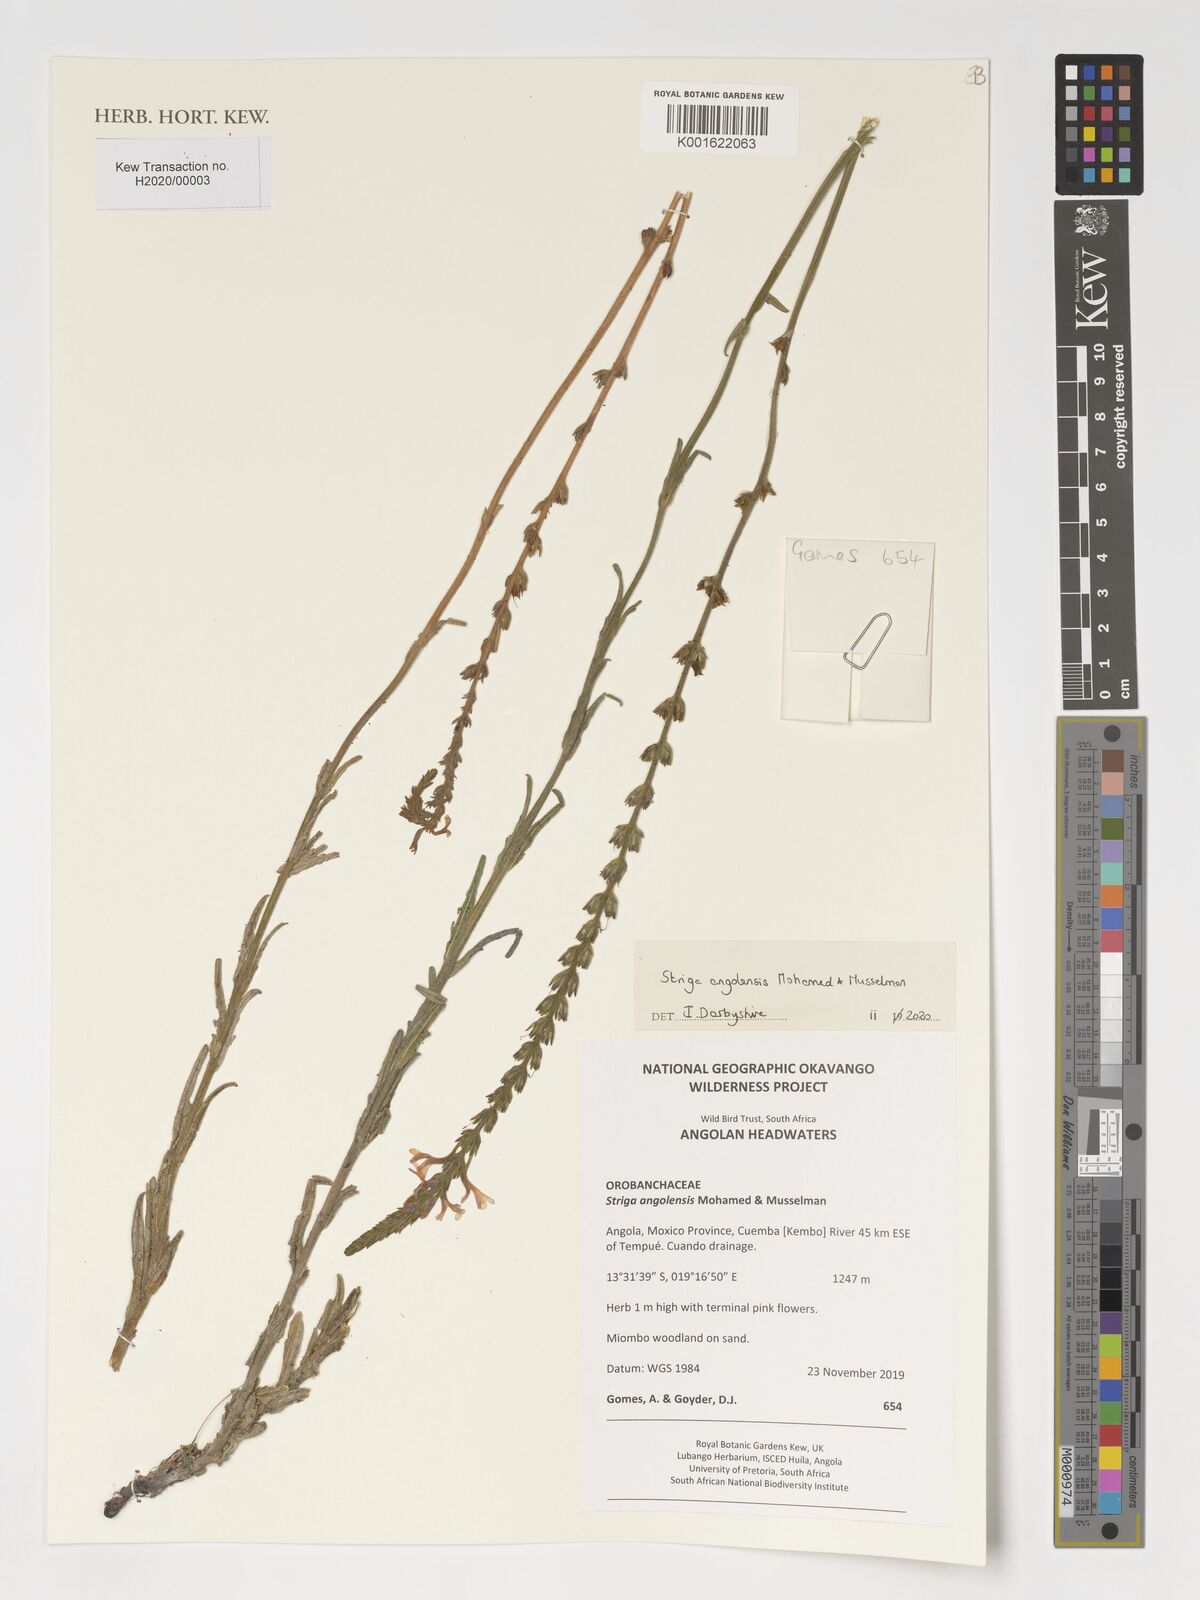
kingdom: Plantae
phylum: Tracheophyta
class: Magnoliopsida
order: Lamiales
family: Orobanchaceae
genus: Striga
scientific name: Striga angolensis
